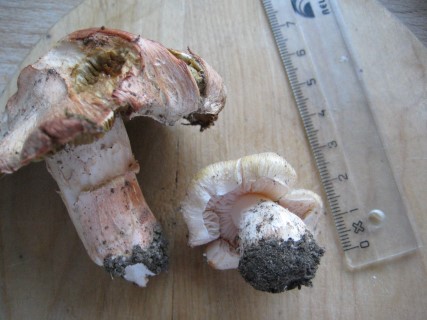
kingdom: Fungi
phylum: Basidiomycota
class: Agaricomycetes
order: Agaricales
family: Inocybaceae
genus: Inosperma
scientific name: Inosperma erubescens
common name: giftig trævlhat
